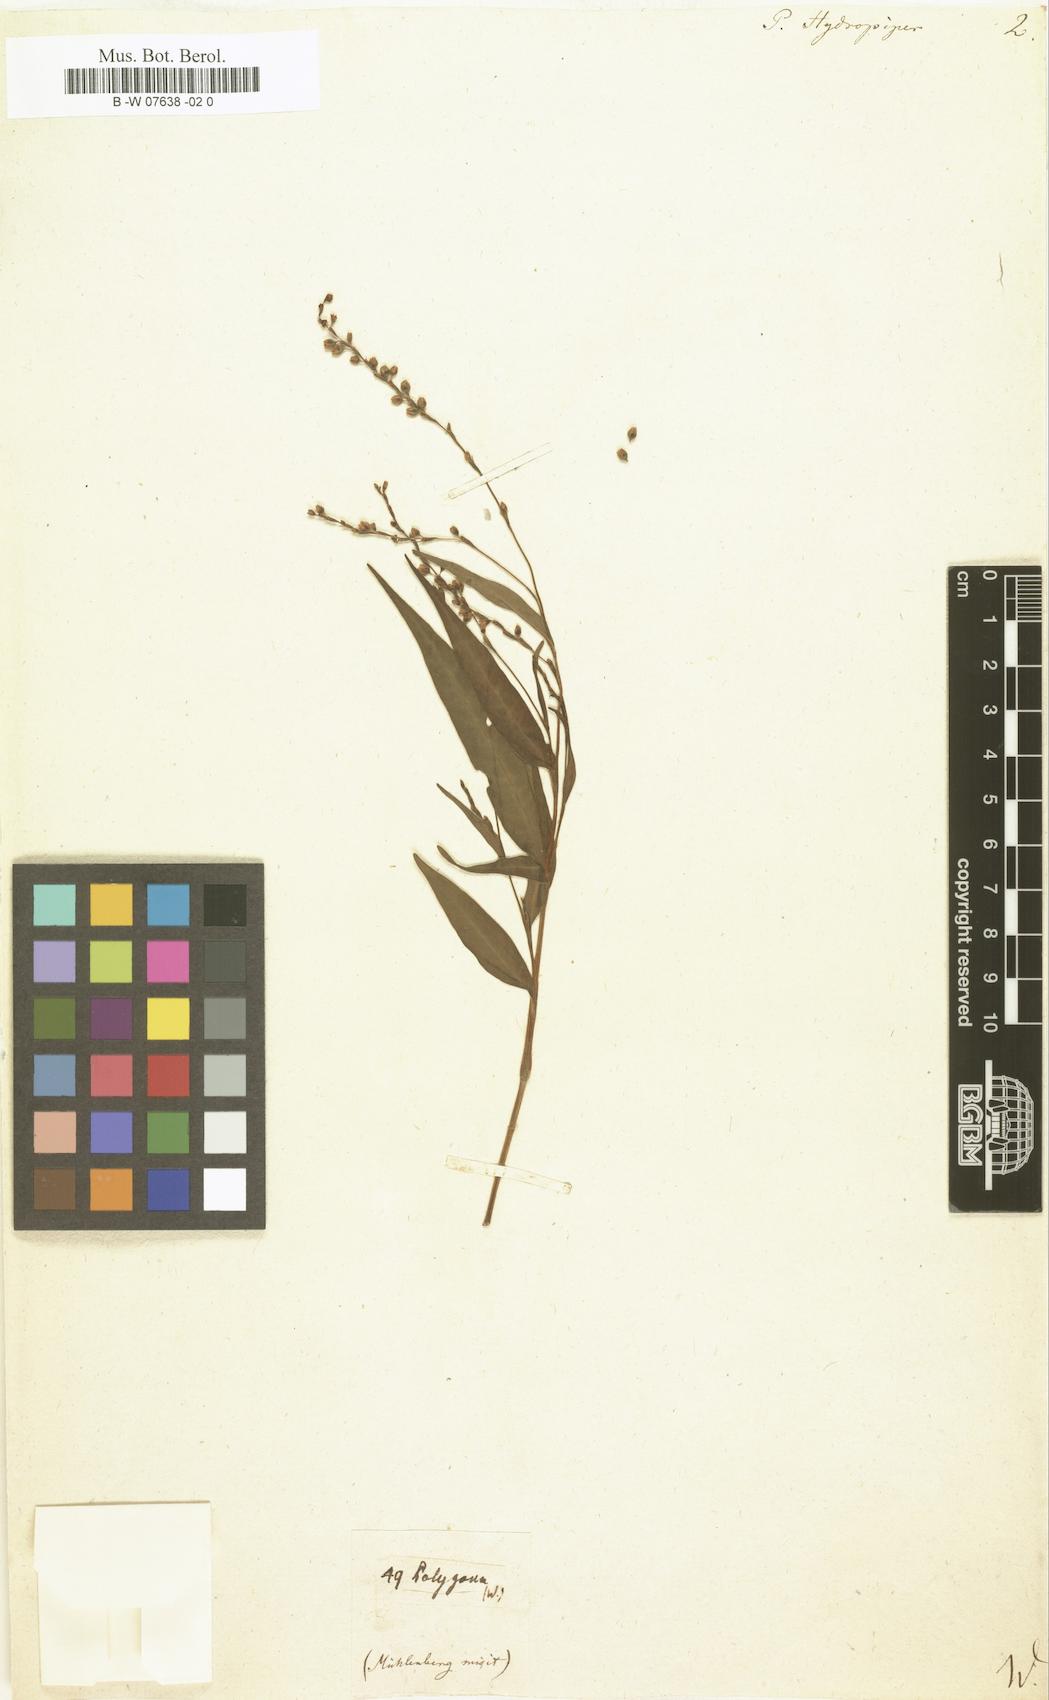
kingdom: Plantae
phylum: Tracheophyta
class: Magnoliopsida
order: Caryophyllales
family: Polygonaceae
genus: Persicaria
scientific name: Persicaria
